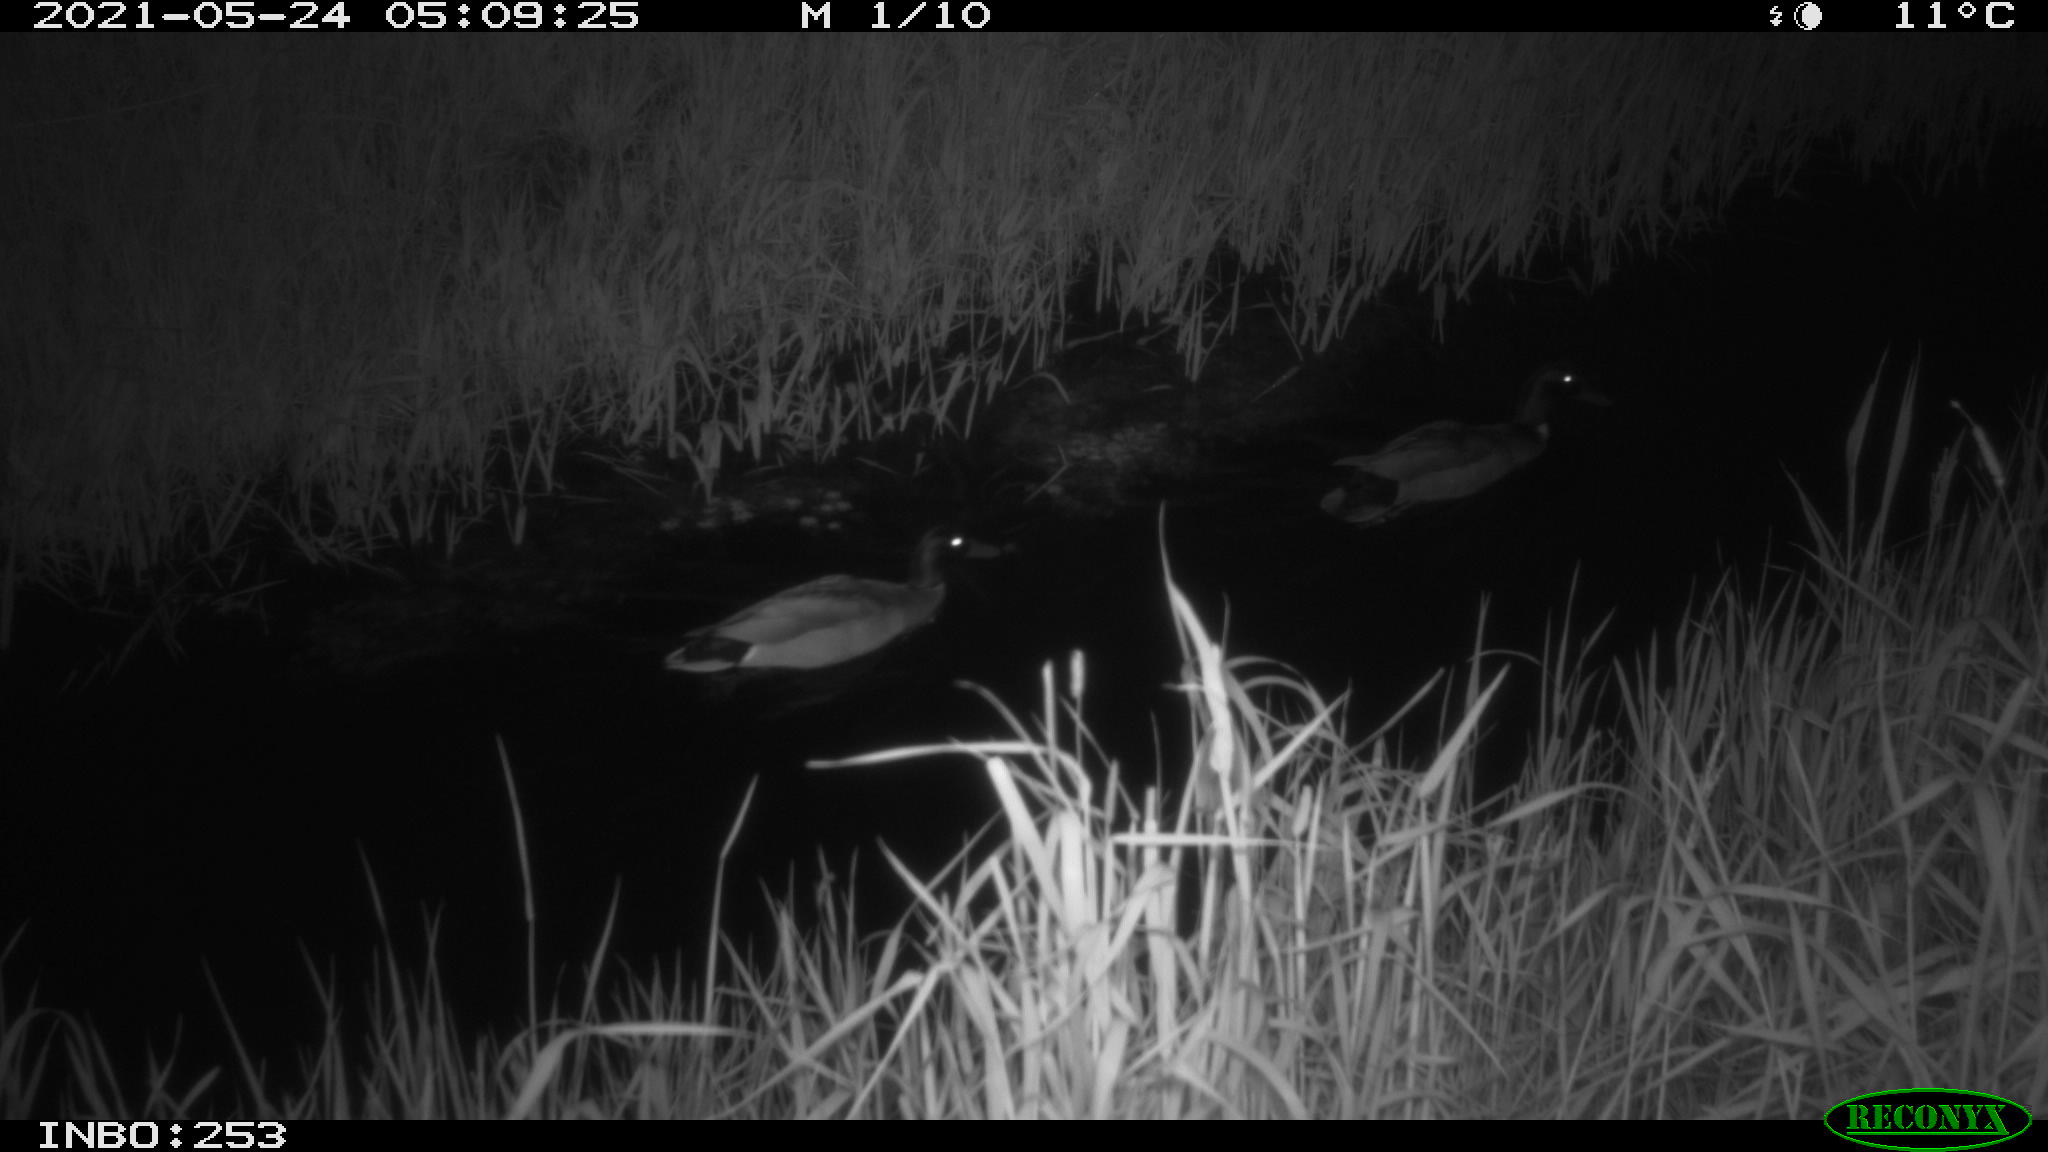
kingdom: Animalia
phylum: Chordata
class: Aves
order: Anseriformes
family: Anatidae
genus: Anas
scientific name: Anas platyrhynchos
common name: Mallard
